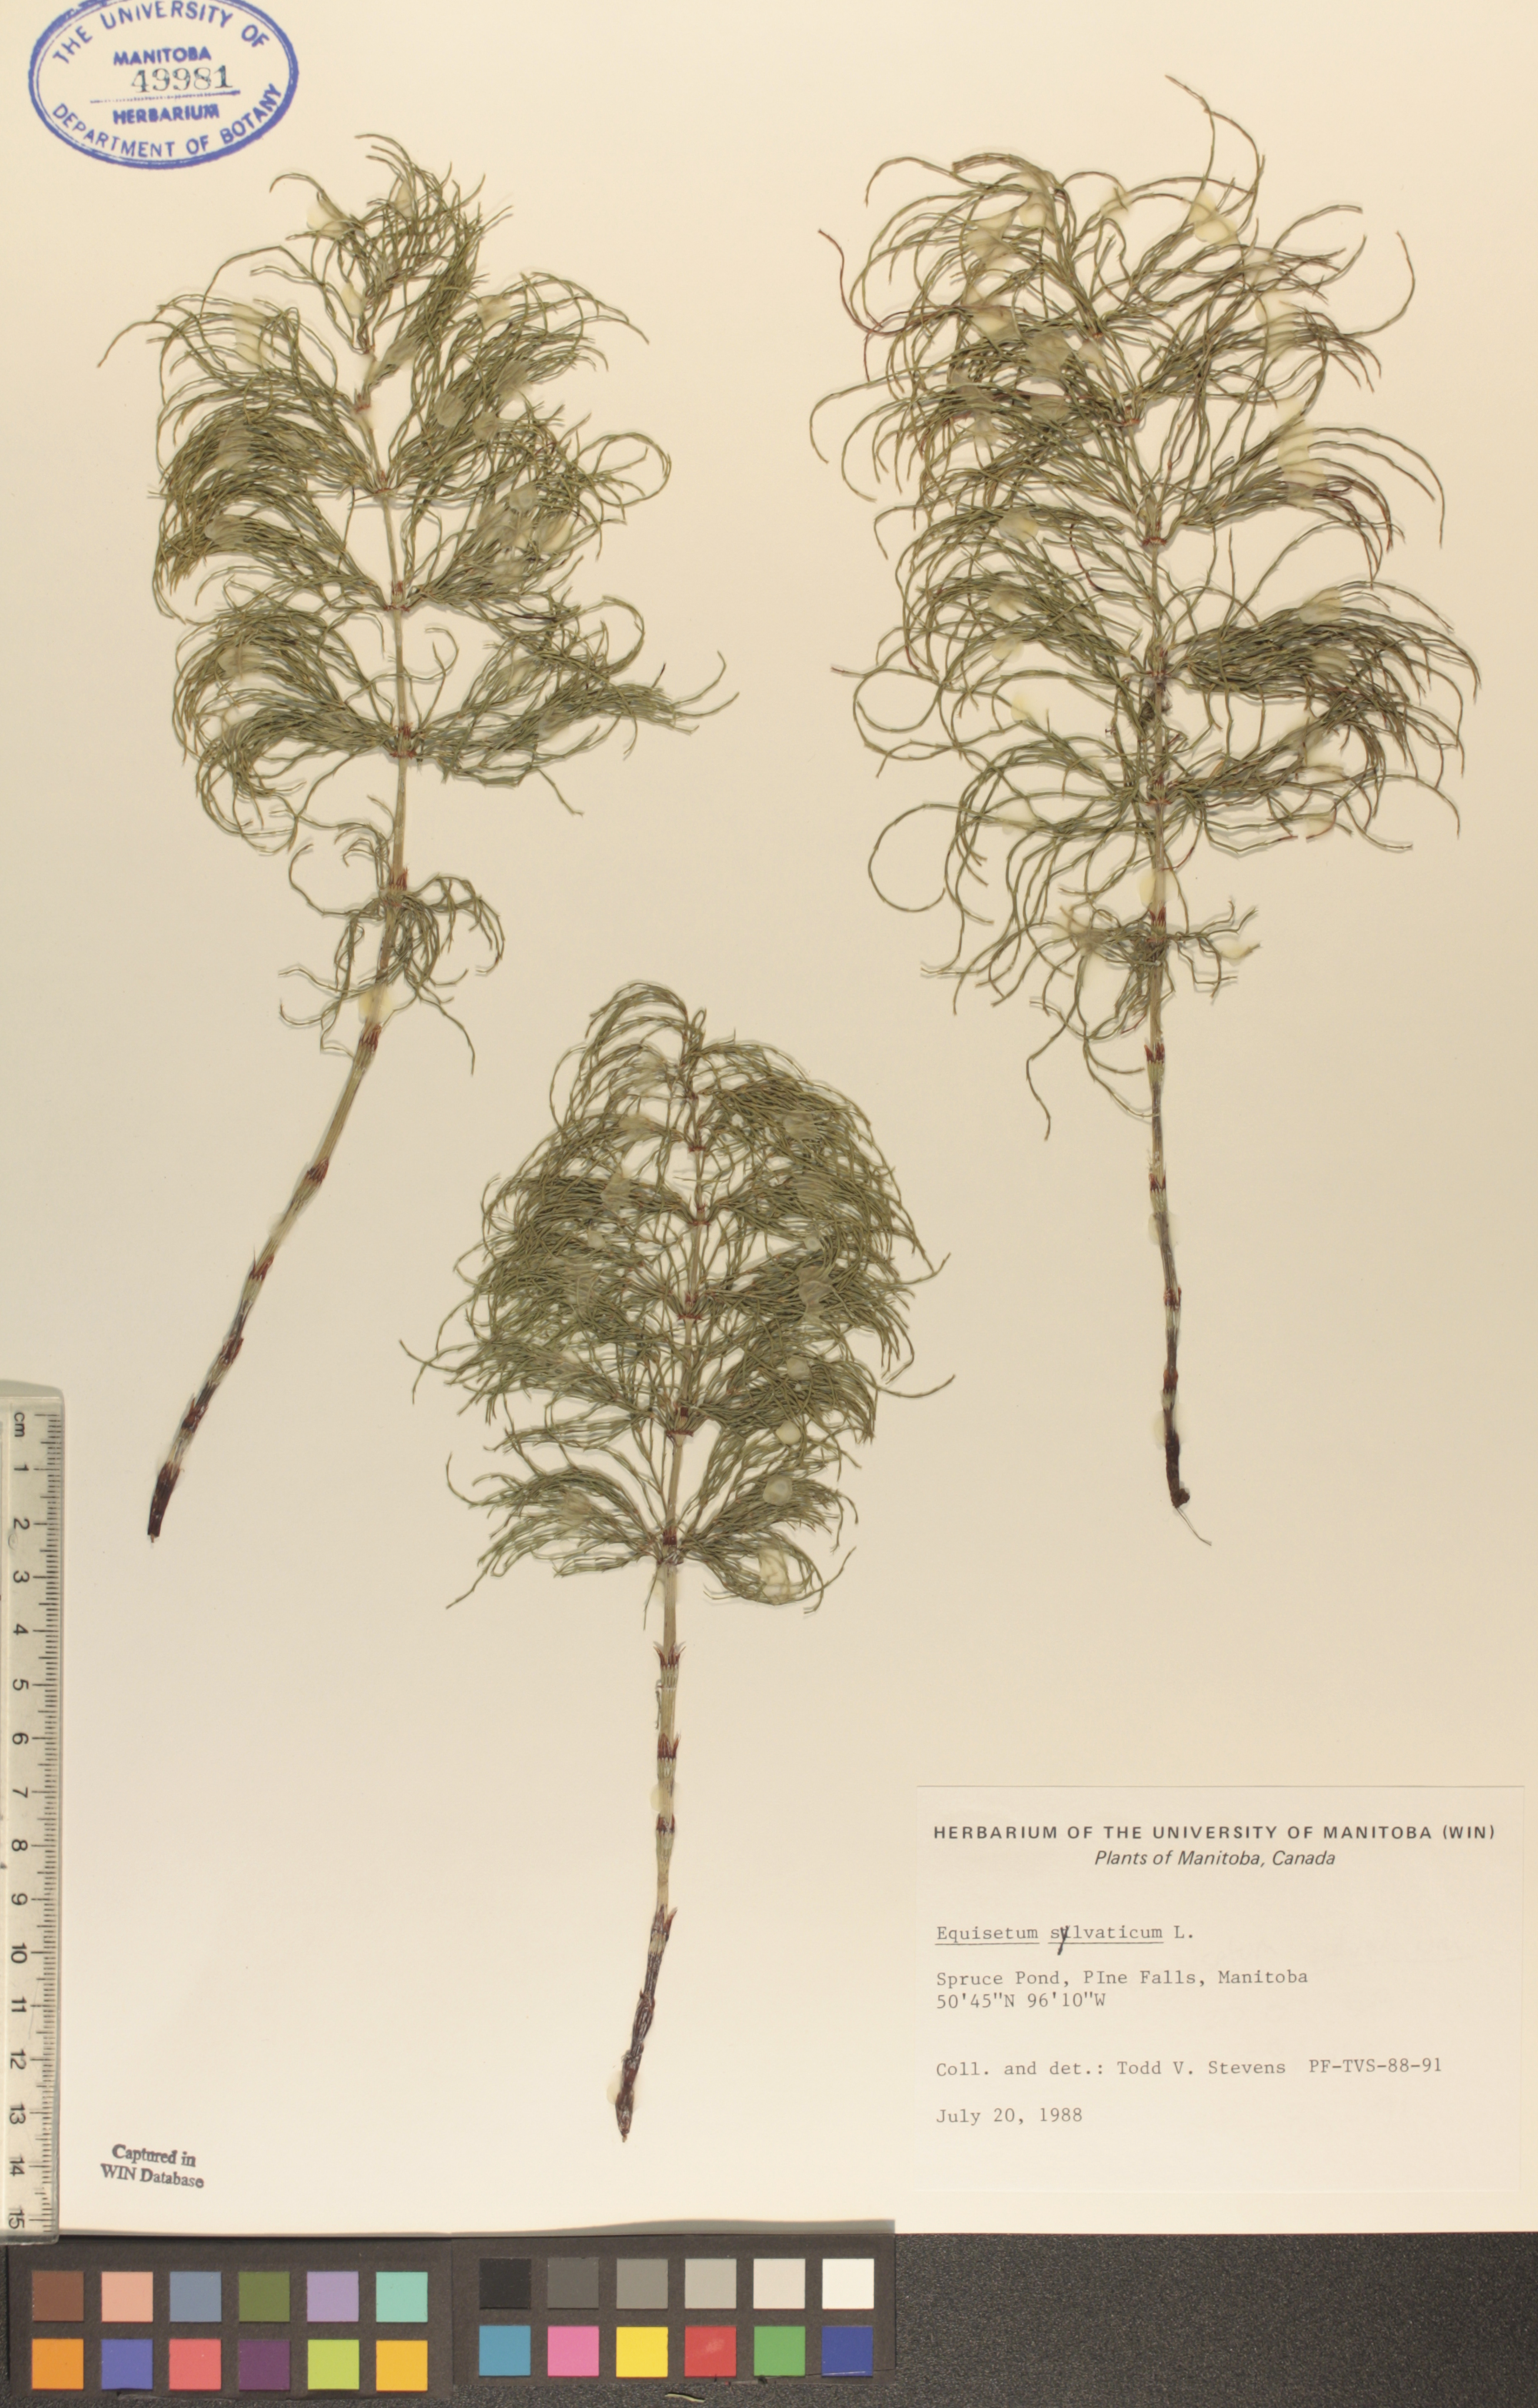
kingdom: Plantae
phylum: Tracheophyta
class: Polypodiopsida
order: Equisetales
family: Equisetaceae
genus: Equisetum
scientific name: Equisetum sylvaticum
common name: Wood horsetail
